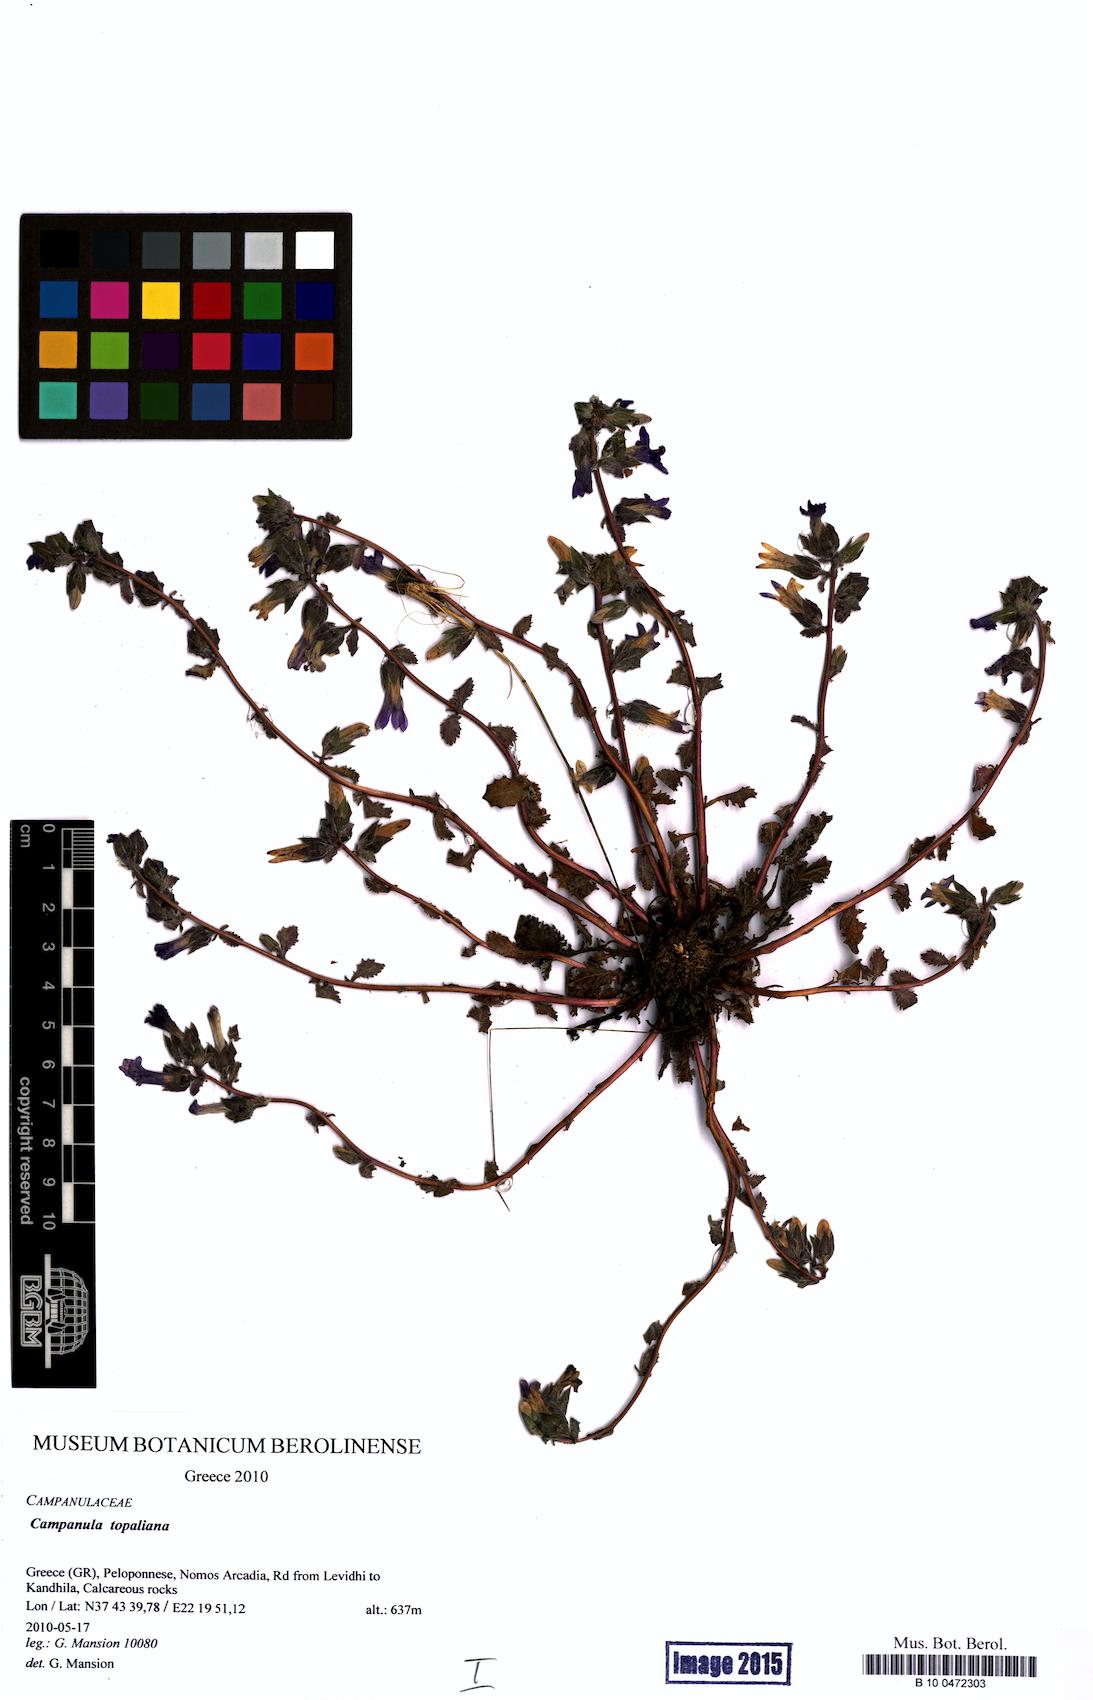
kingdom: Plantae
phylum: Tracheophyta
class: Magnoliopsida
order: Asterales
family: Campanulaceae
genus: Campanula
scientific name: Campanula topaliana
